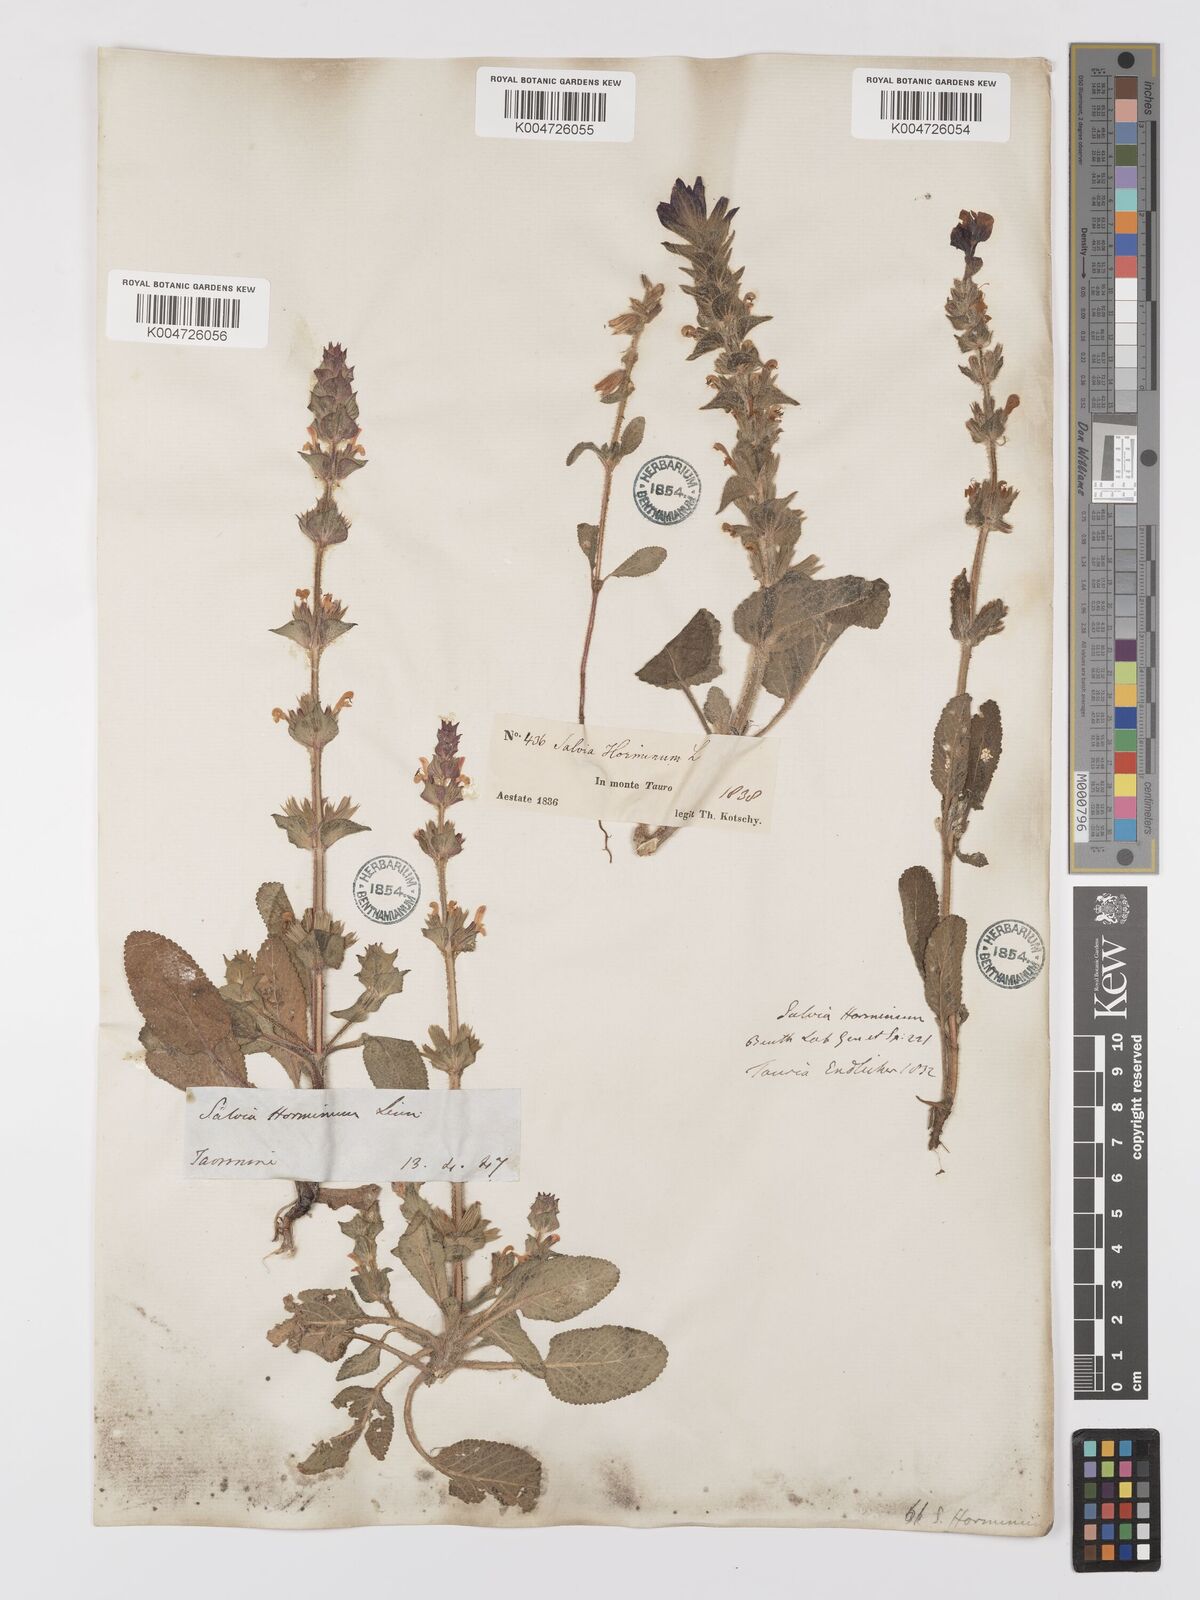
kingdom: Plantae
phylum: Tracheophyta
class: Magnoliopsida
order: Lamiales
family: Lamiaceae
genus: Salvia
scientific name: Salvia viridis
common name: Annual clary
